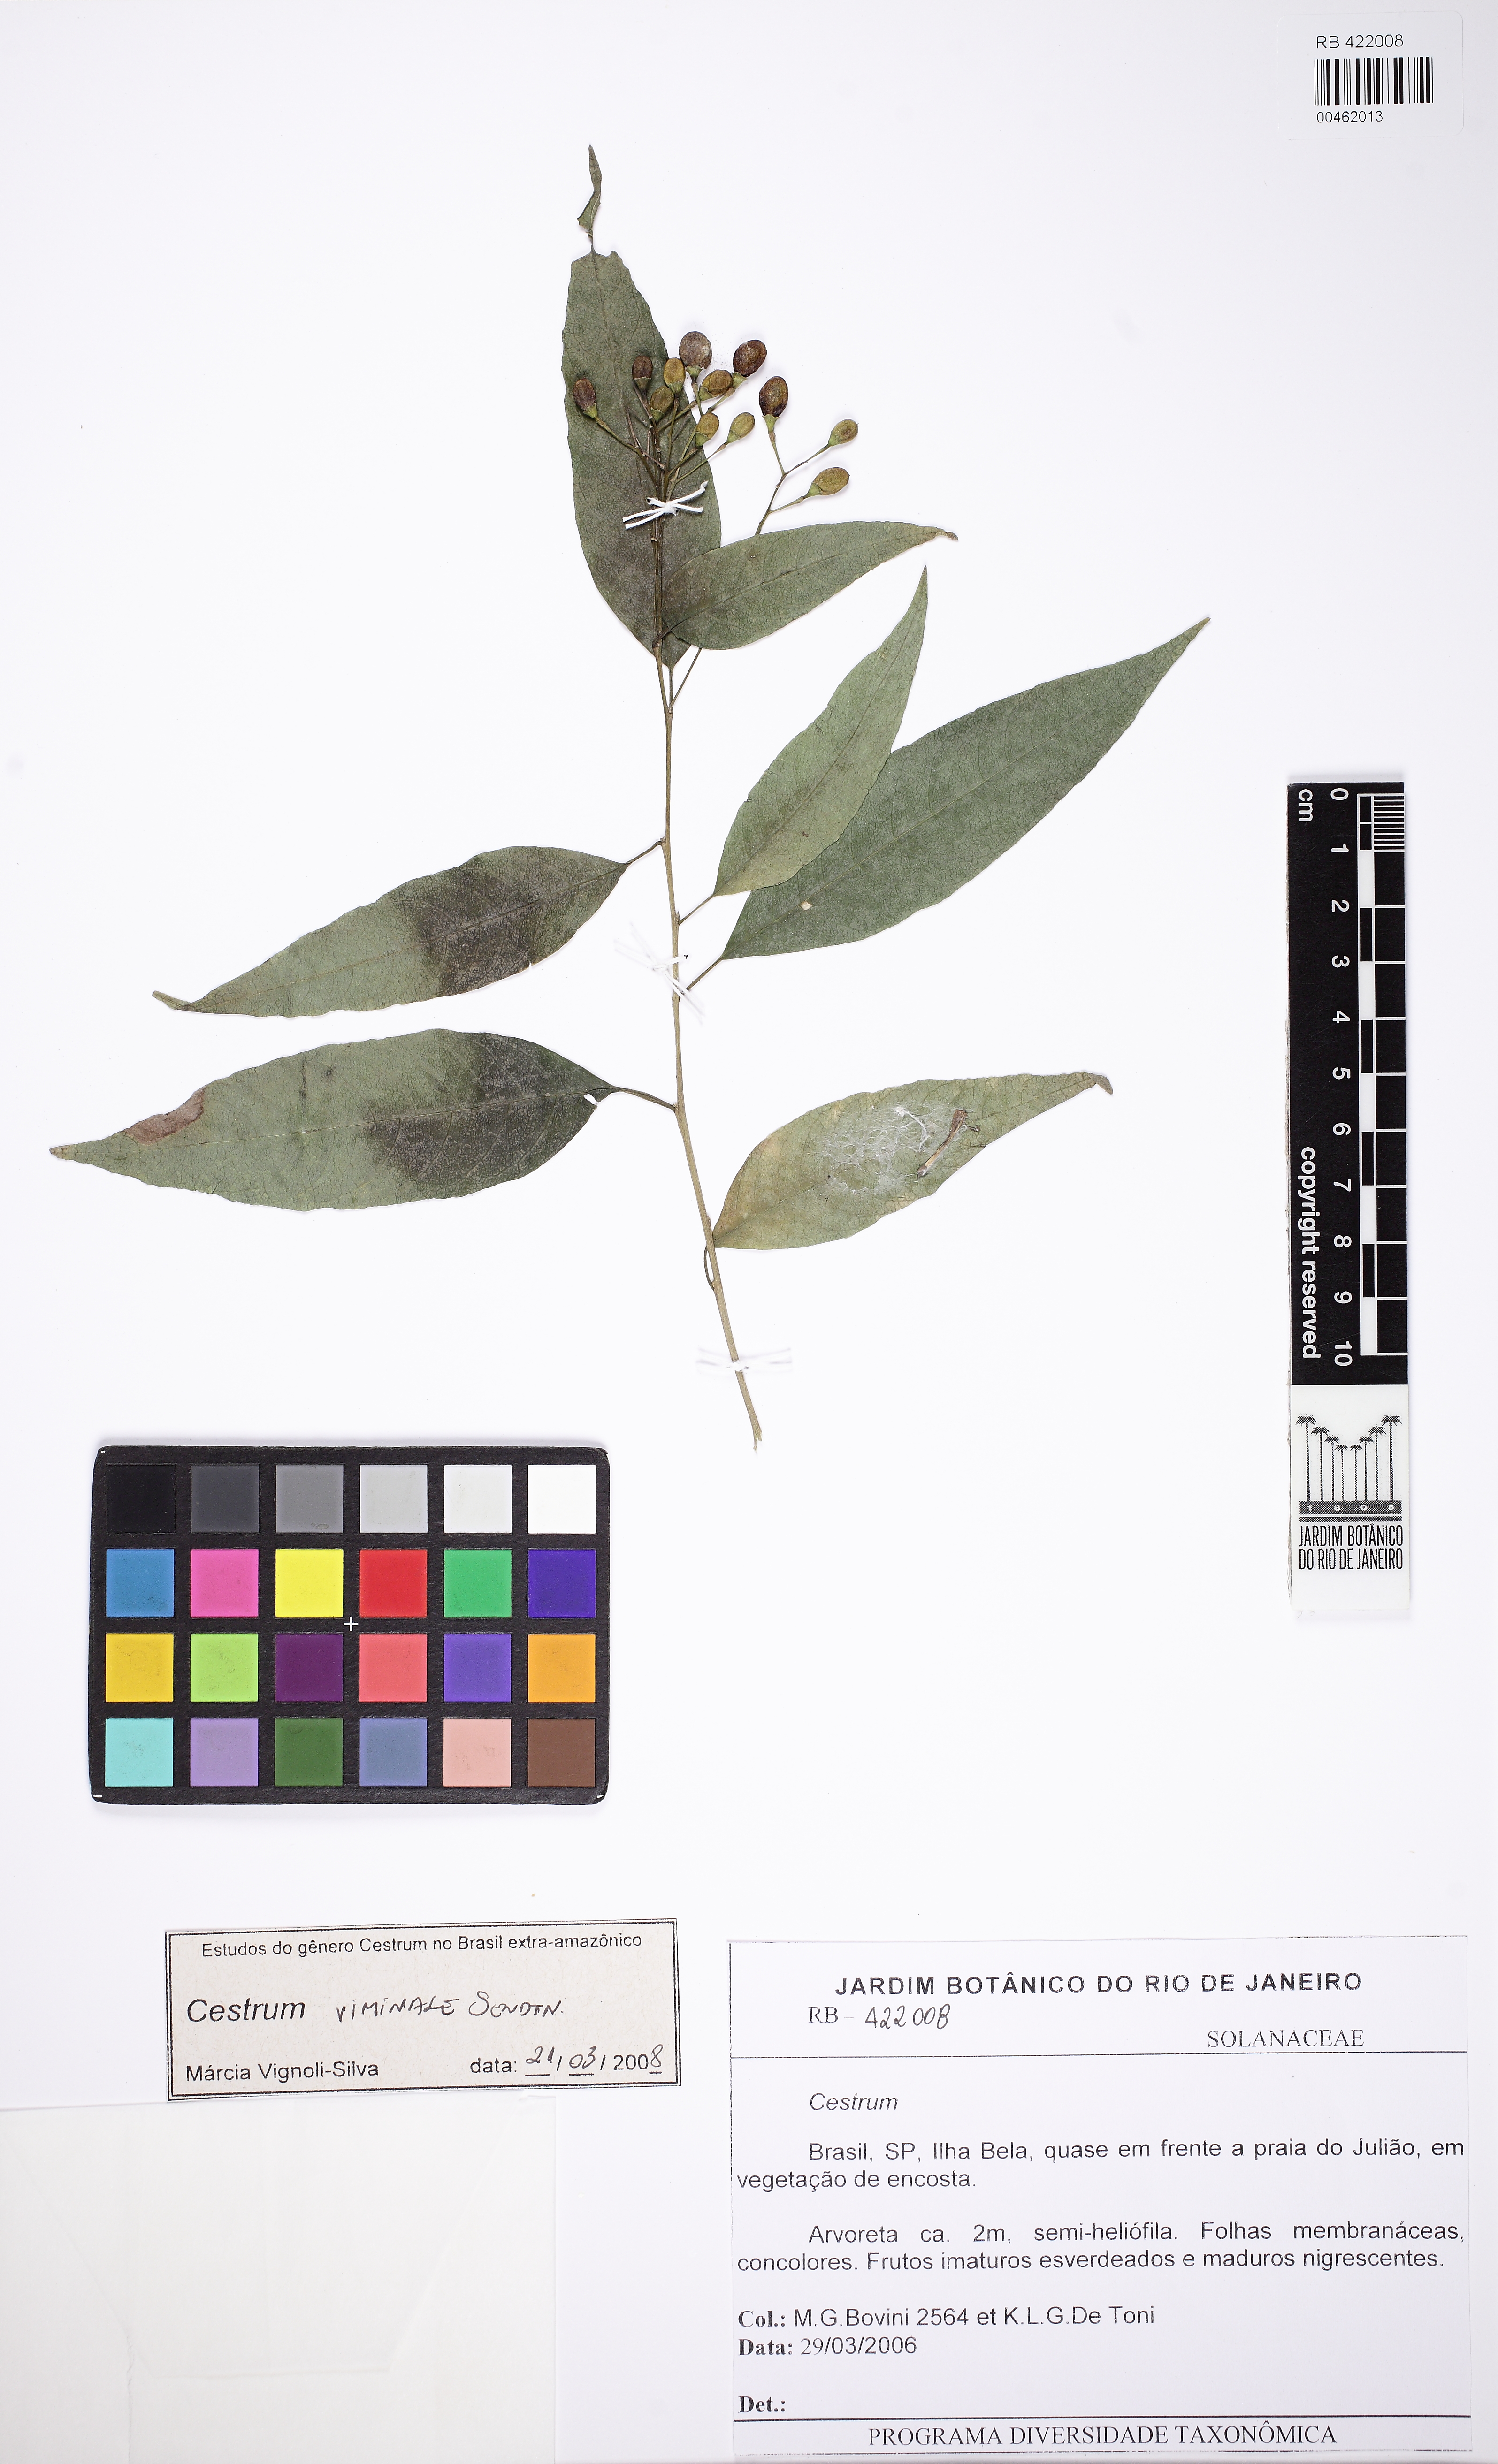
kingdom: Plantae
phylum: Tracheophyta
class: Magnoliopsida
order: Solanales
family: Solanaceae
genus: Cestrum
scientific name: Cestrum montanum
